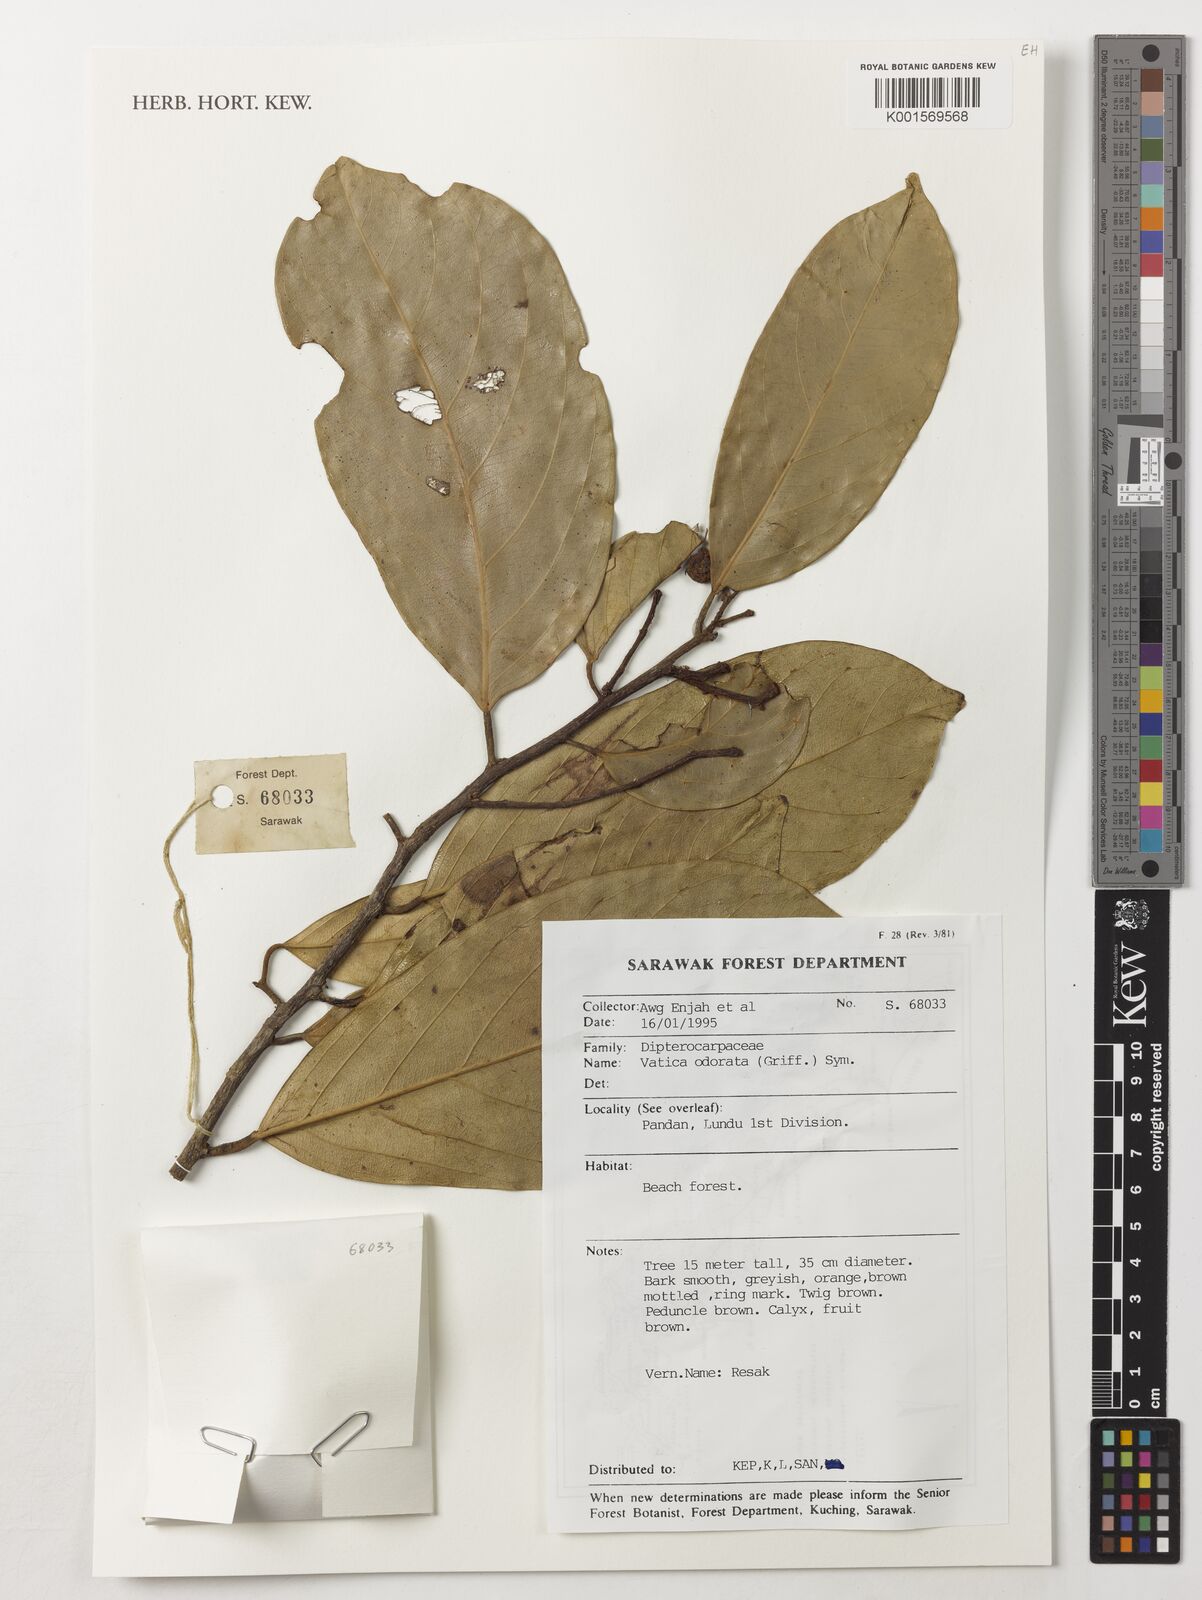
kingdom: Plantae
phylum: Tracheophyta
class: Magnoliopsida
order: Malvales
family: Dipterocarpaceae
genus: Vatica
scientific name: Vatica odorata
